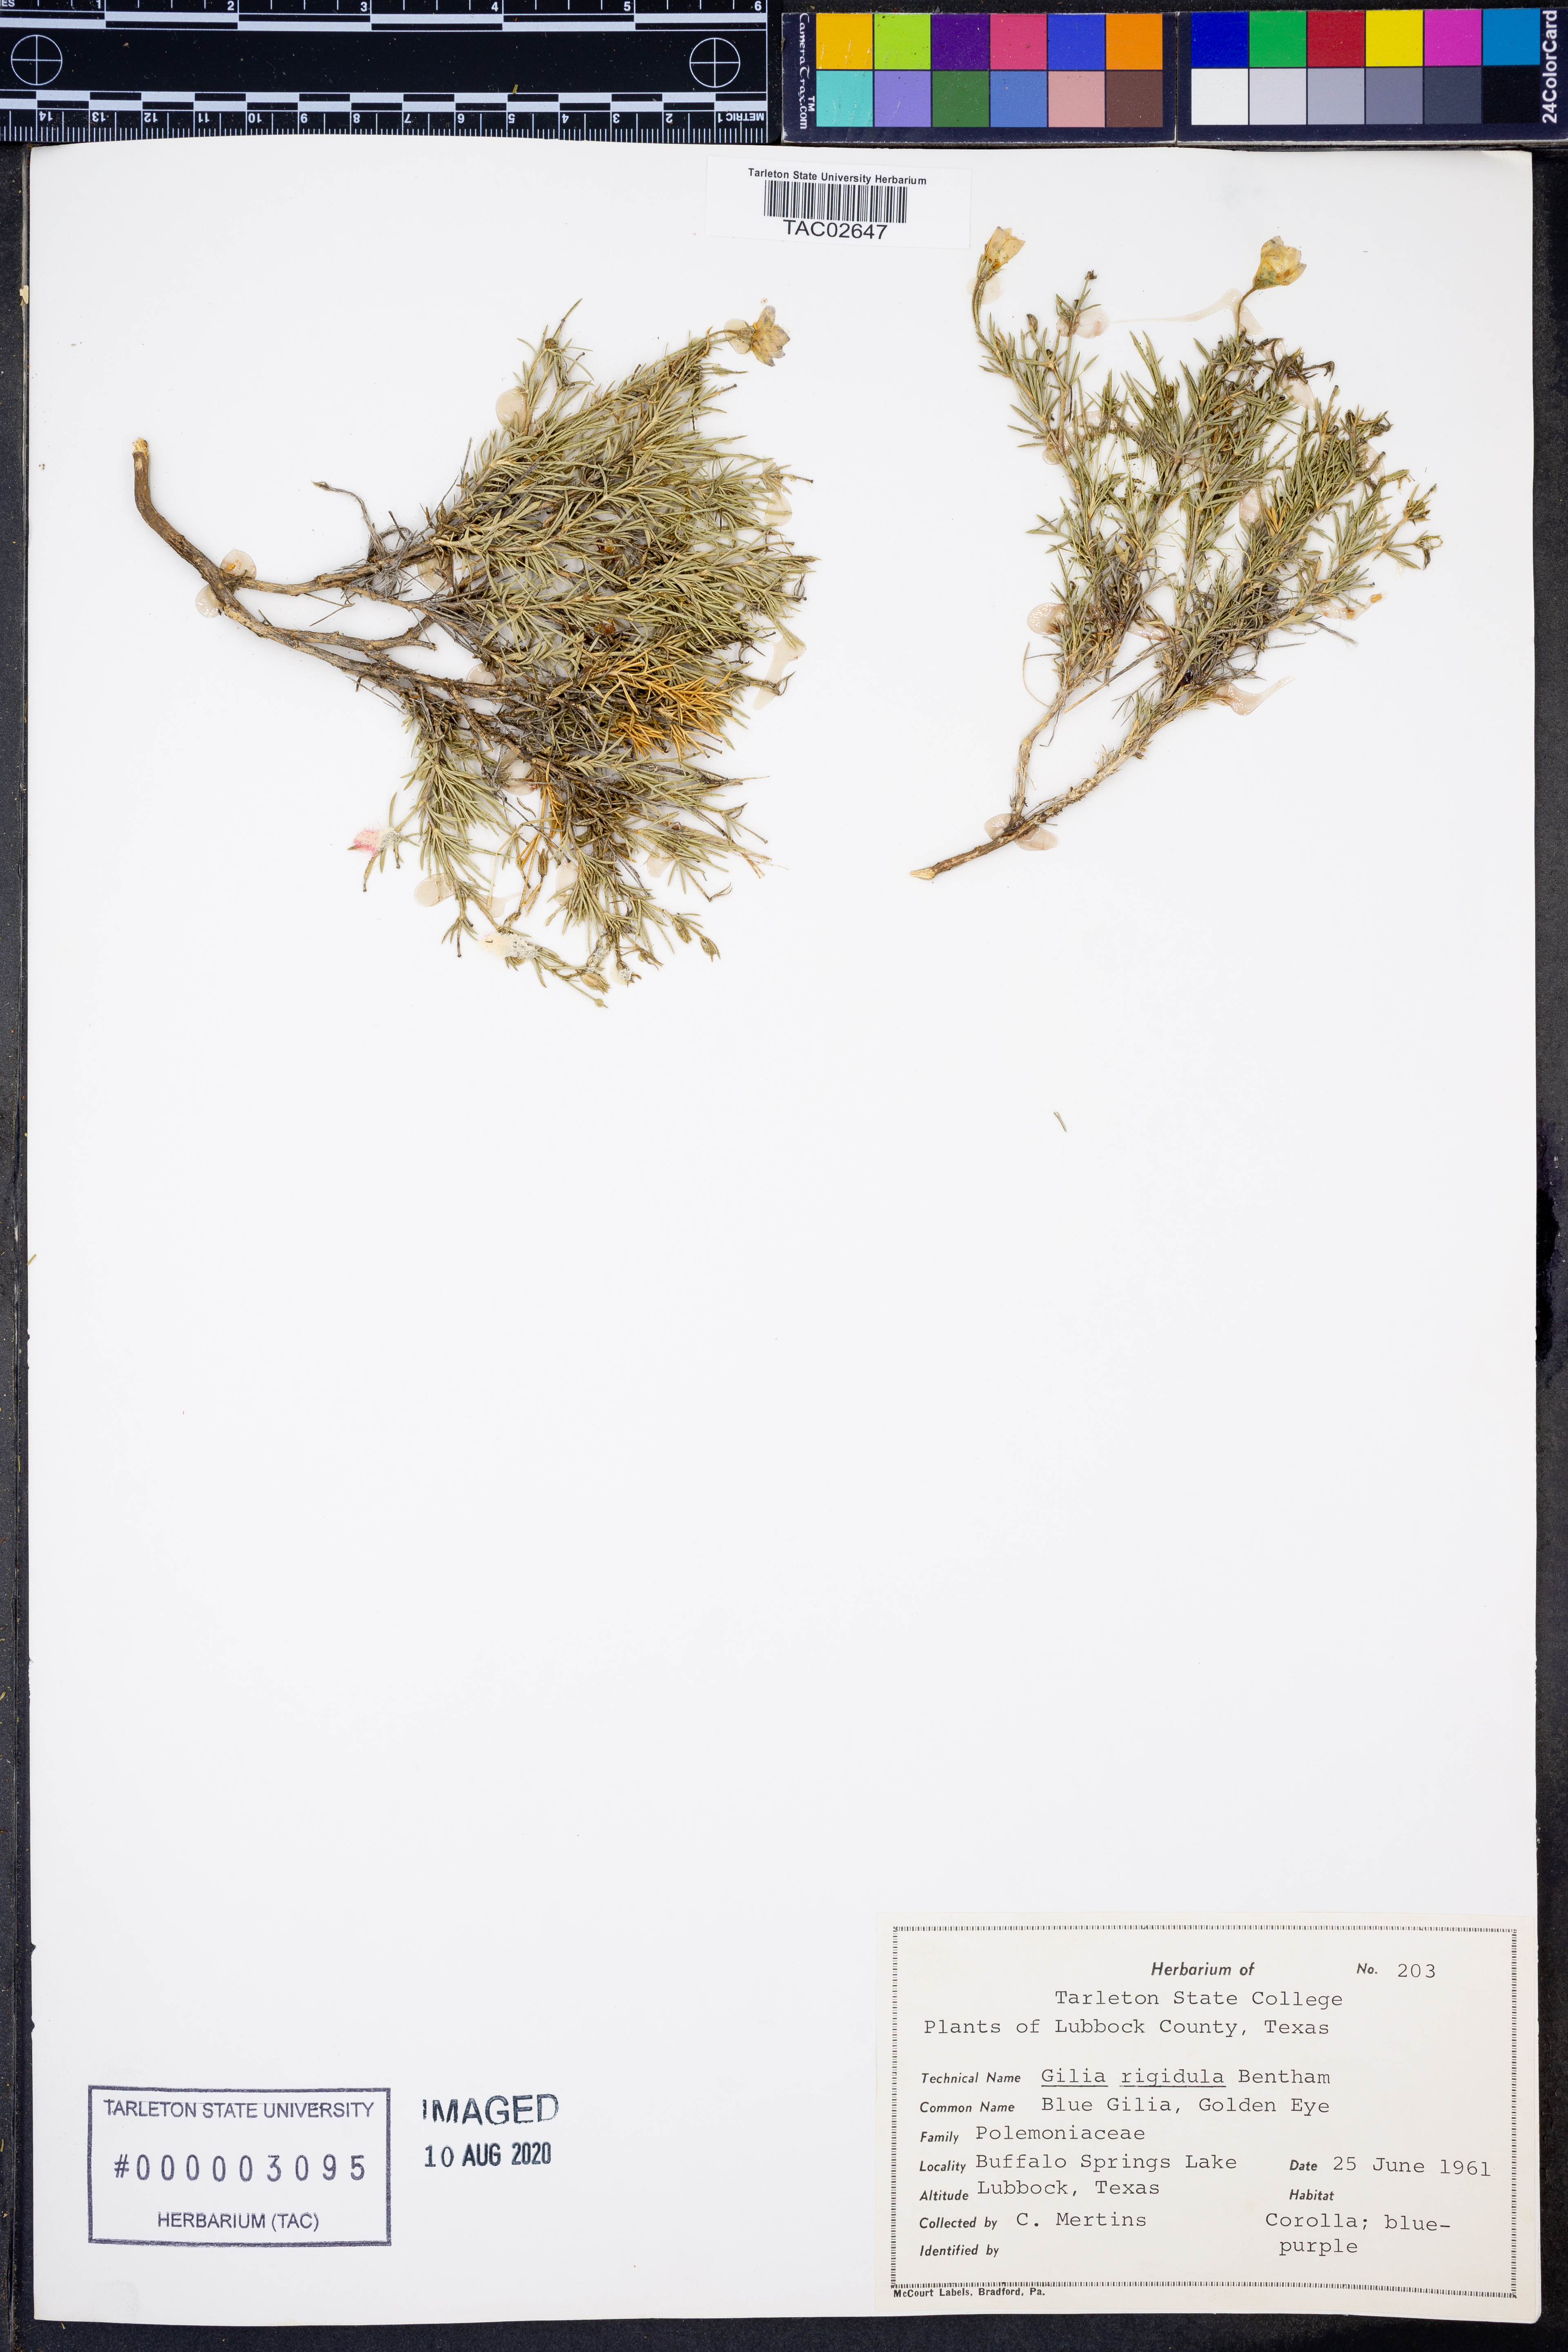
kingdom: Plantae
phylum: Tracheophyta
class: Magnoliopsida
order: Ericales
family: Polemoniaceae
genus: Giliastrum
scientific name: Giliastrum rigidulum
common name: Bluebowls
